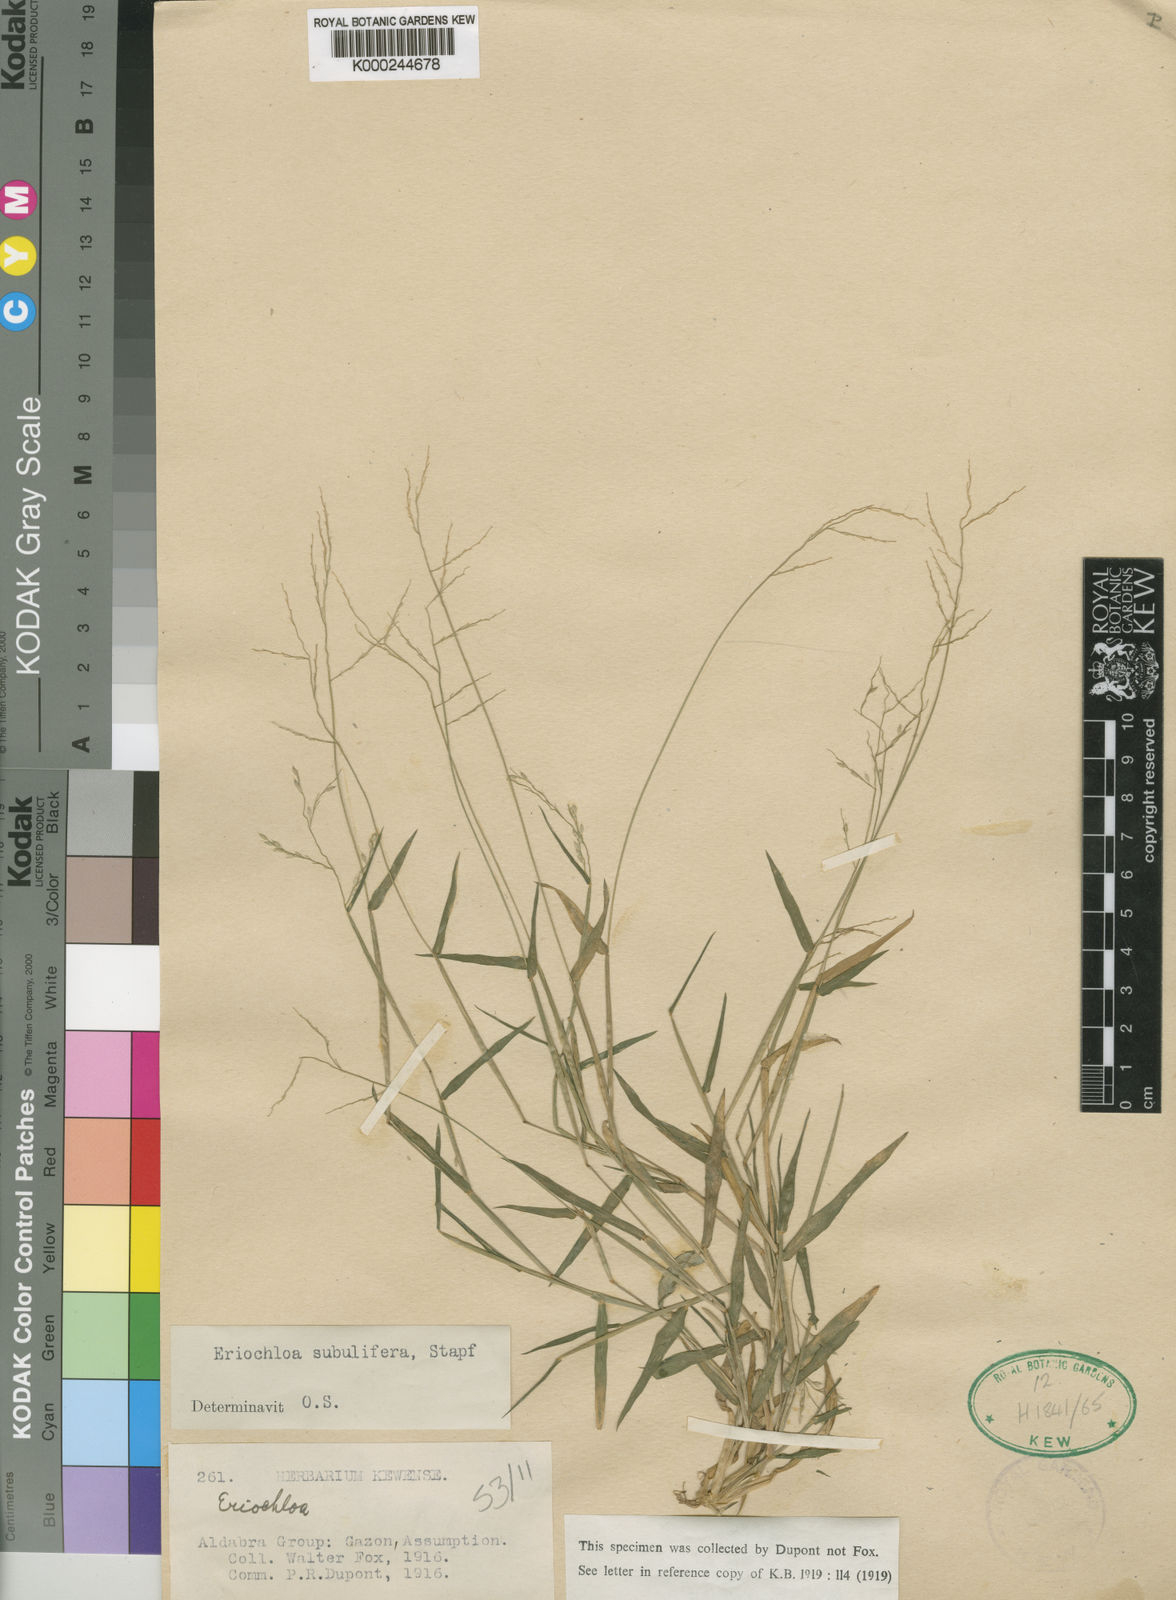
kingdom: Plantae
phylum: Tracheophyta
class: Liliopsida
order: Poales
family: Poaceae
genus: Eriochloa
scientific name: Eriochloa subulifera
